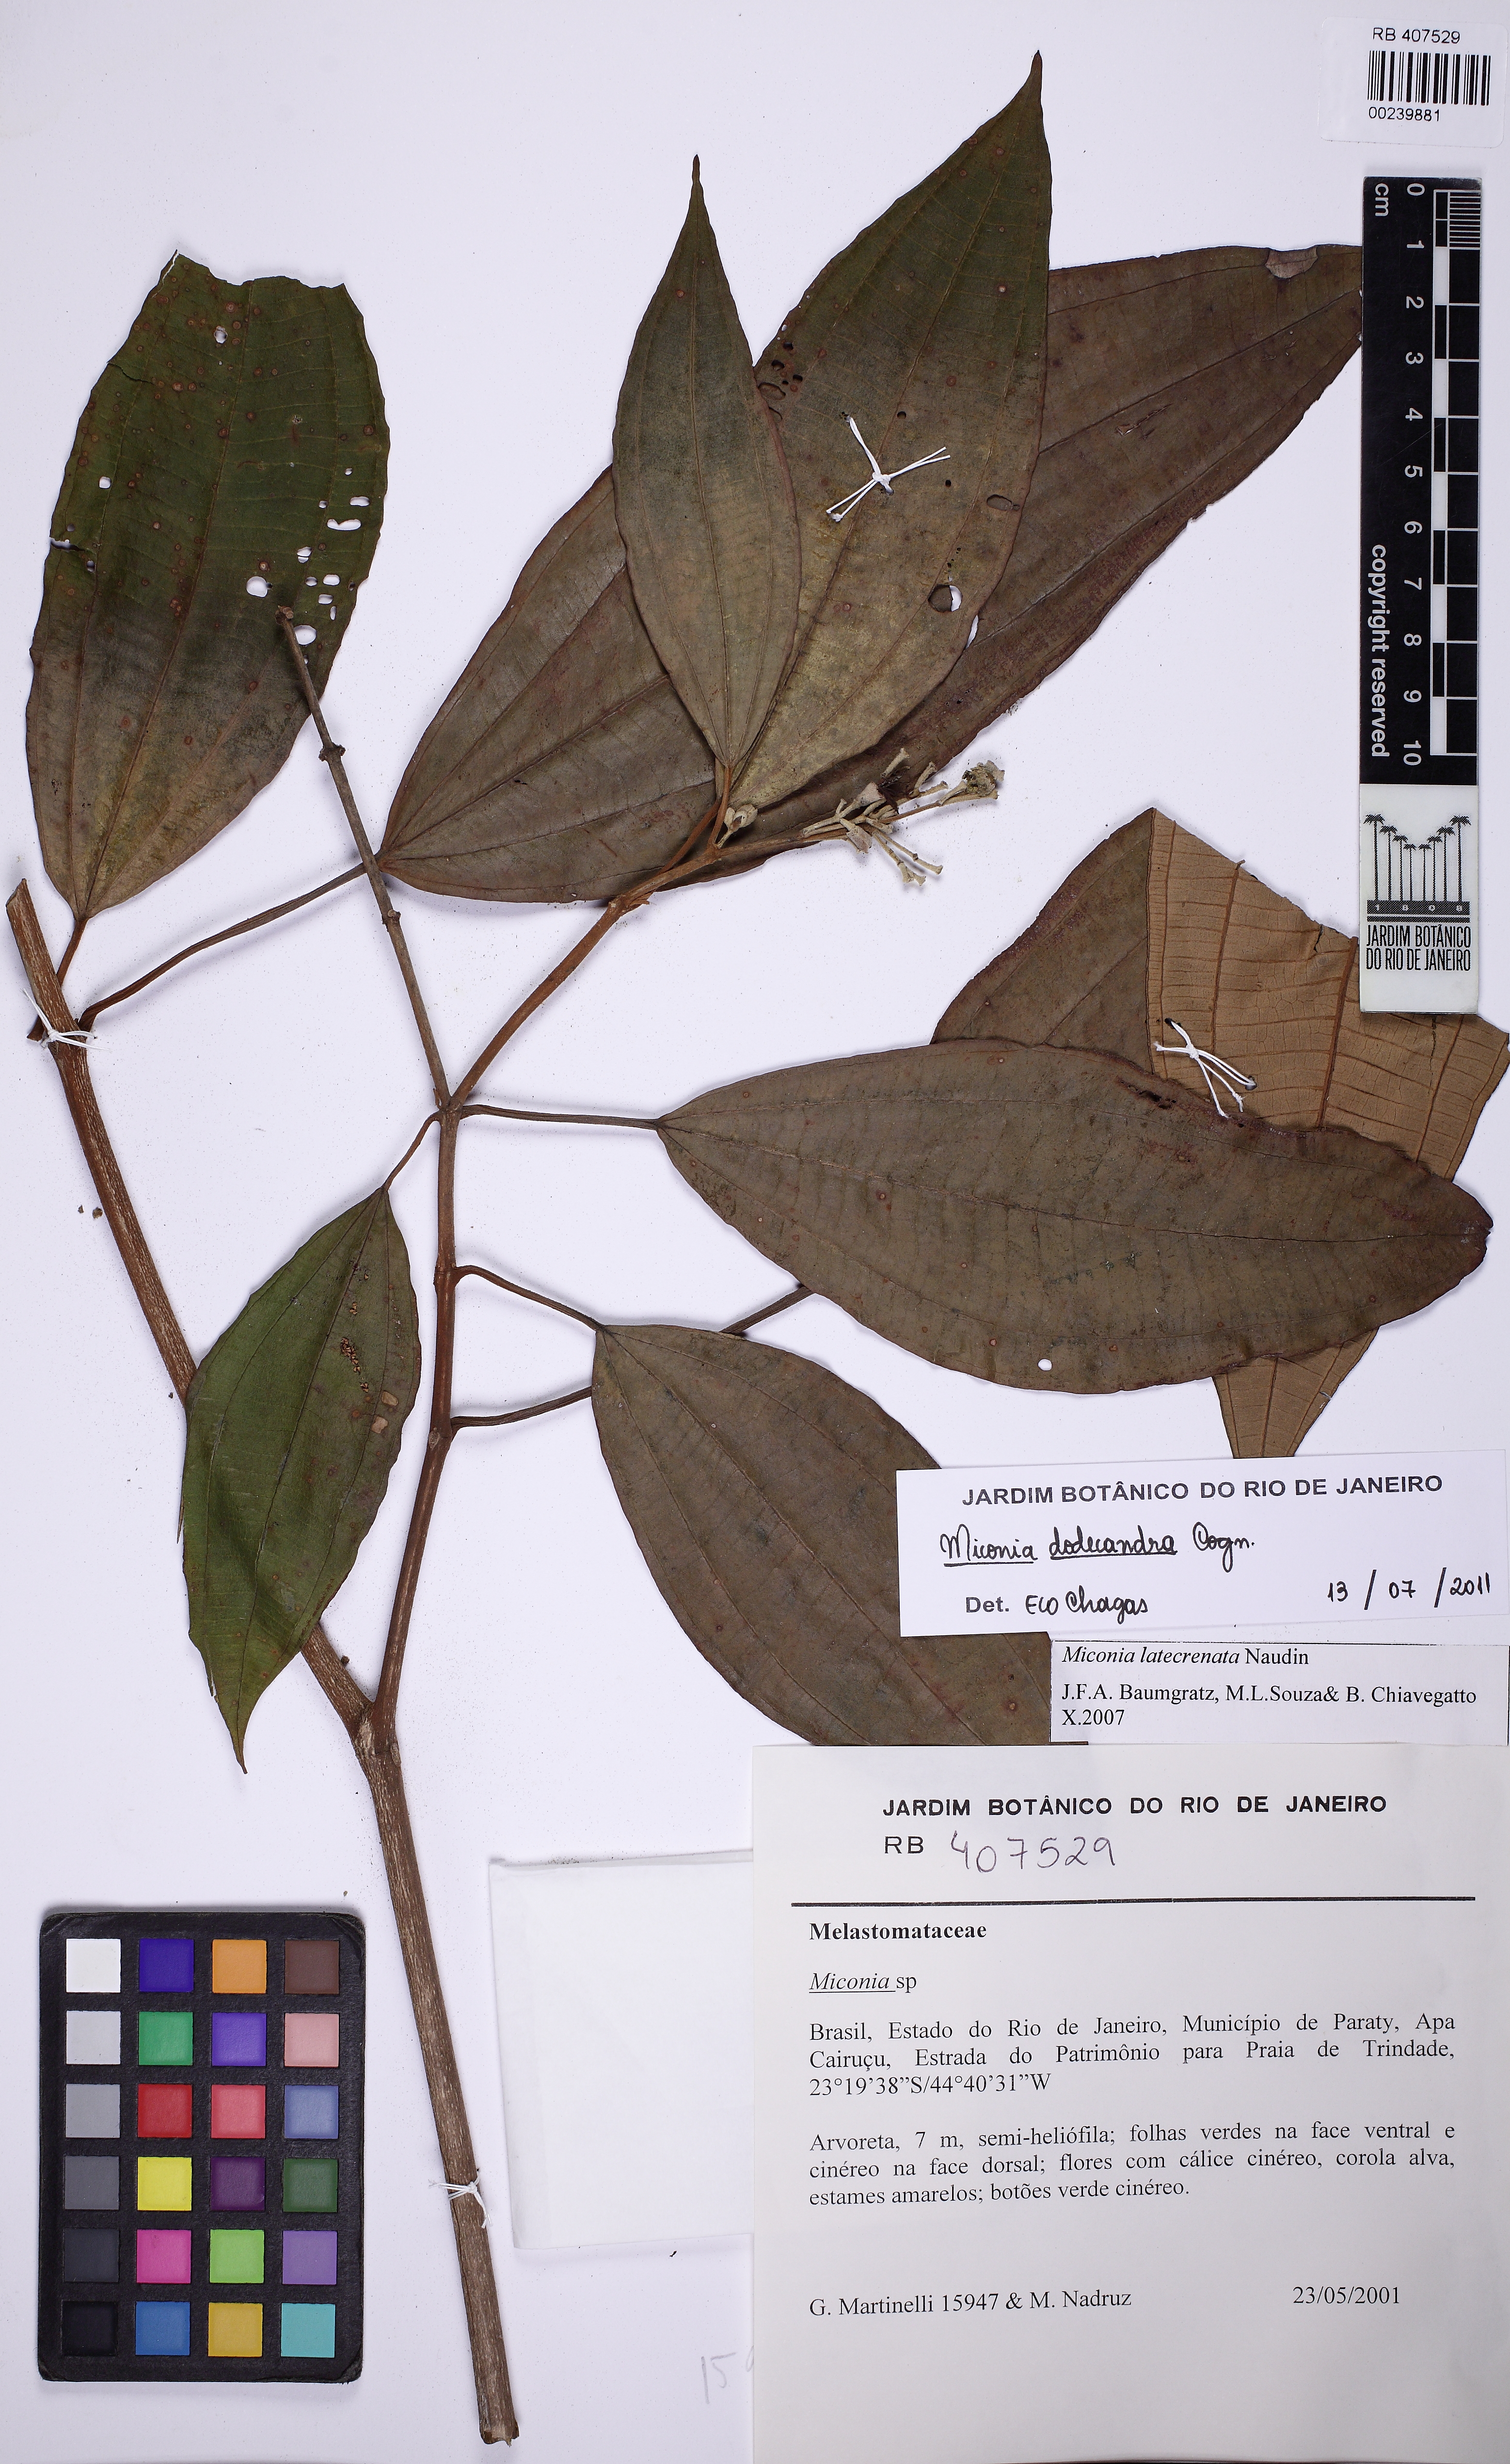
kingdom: Plantae
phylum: Tracheophyta
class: Magnoliopsida
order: Myrtales
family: Melastomataceae
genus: Miconia
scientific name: Miconia dodecandra
